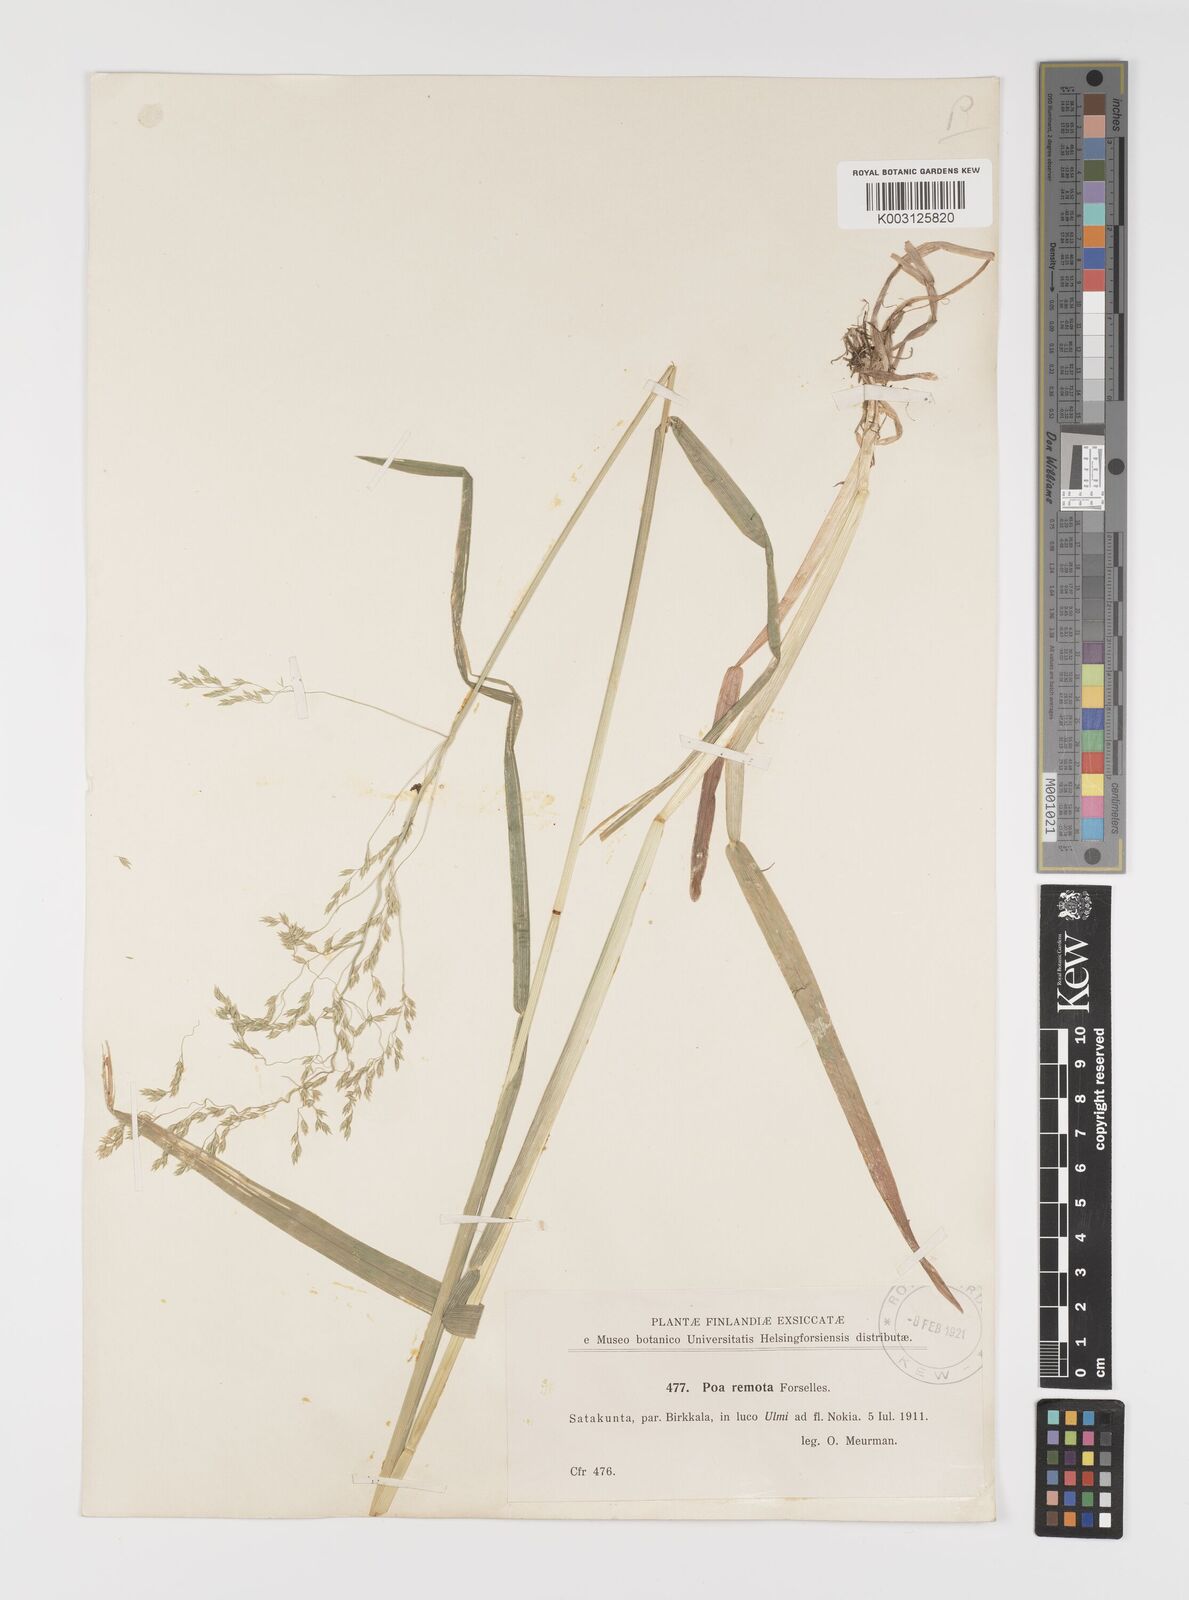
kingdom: Plantae
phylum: Tracheophyta
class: Liliopsida
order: Poales
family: Poaceae
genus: Poa
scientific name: Poa remota
